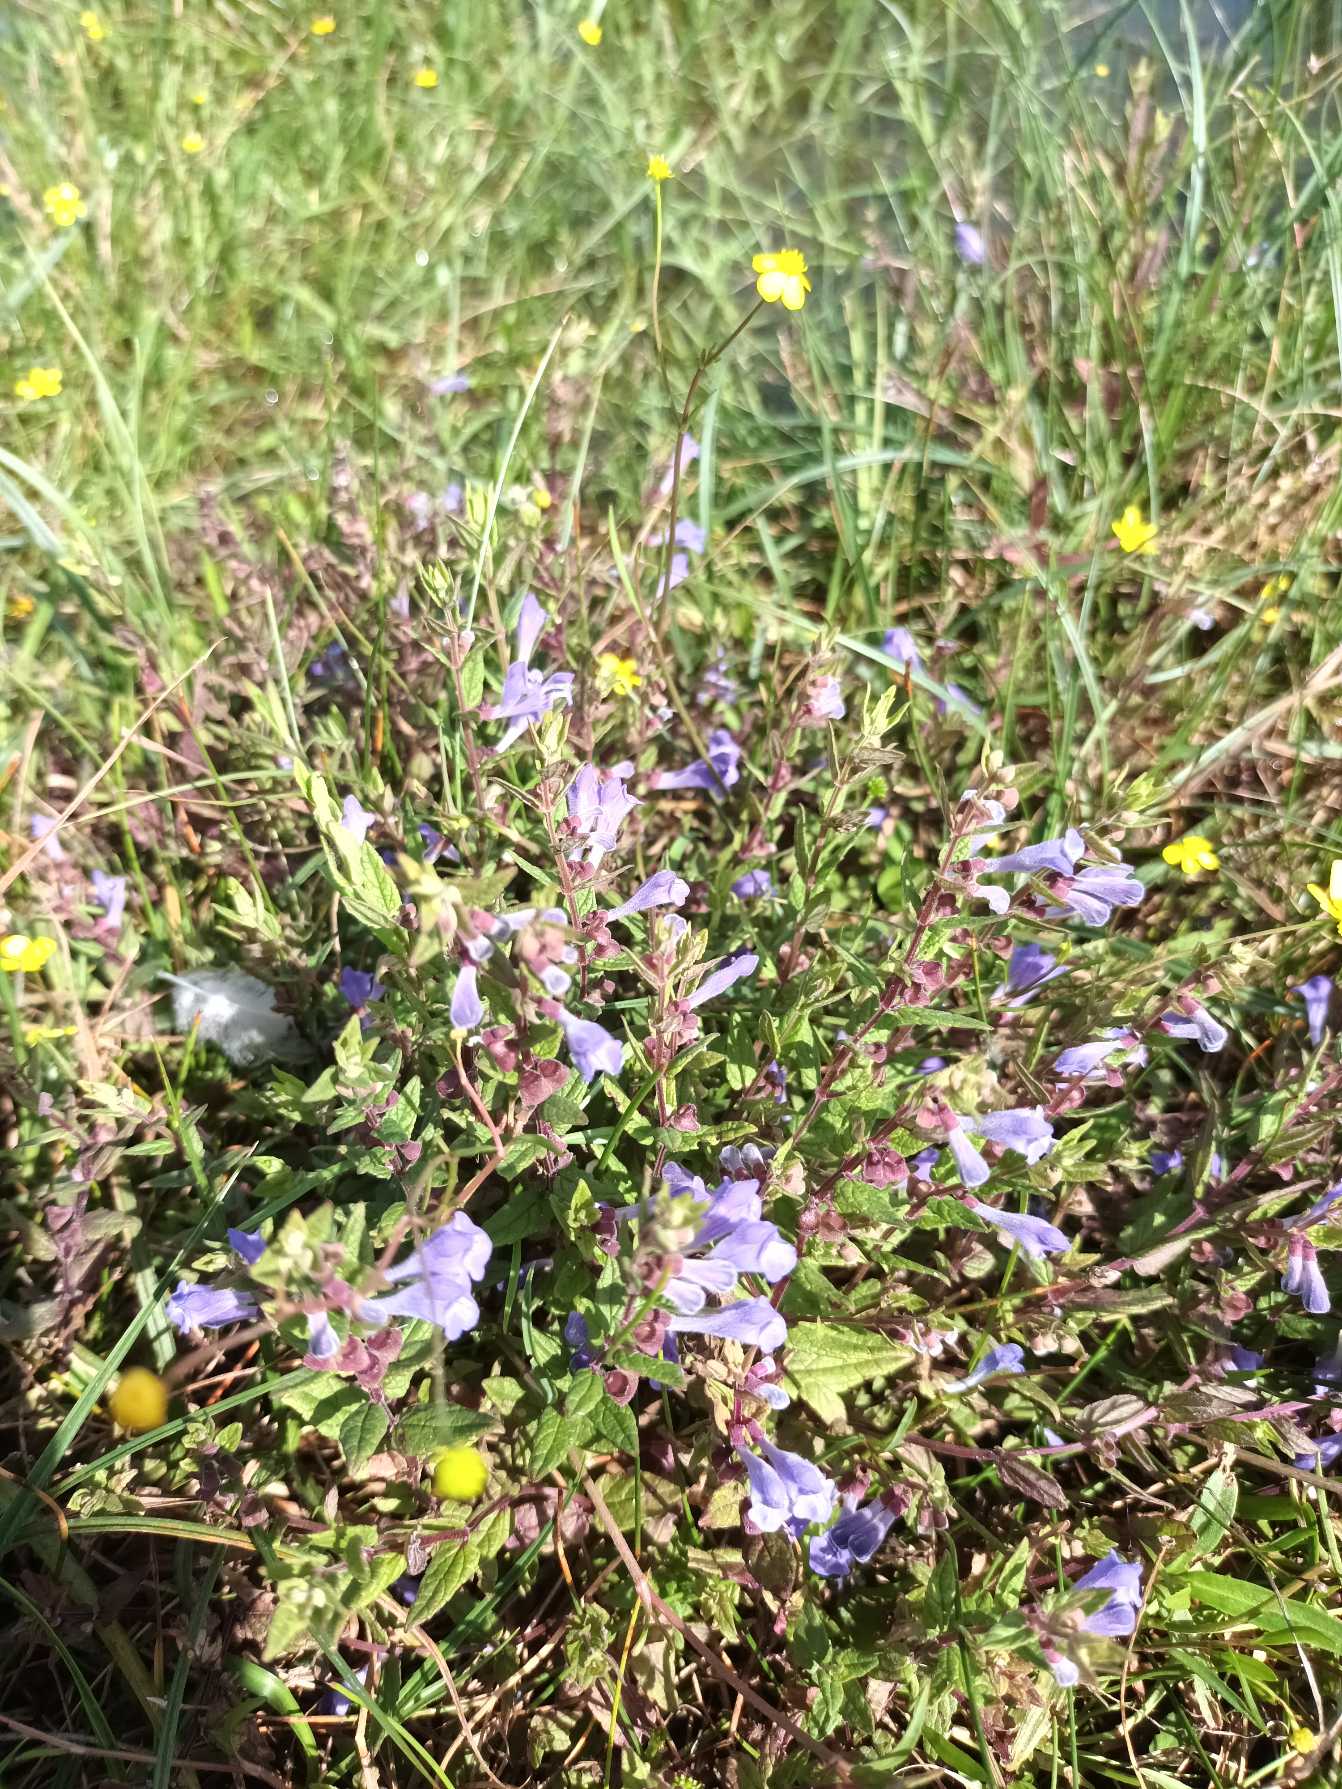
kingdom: Plantae
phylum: Tracheophyta
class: Magnoliopsida
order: Lamiales
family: Lamiaceae
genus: Scutellaria
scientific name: Scutellaria galericulata
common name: Almindelig skjolddrager
